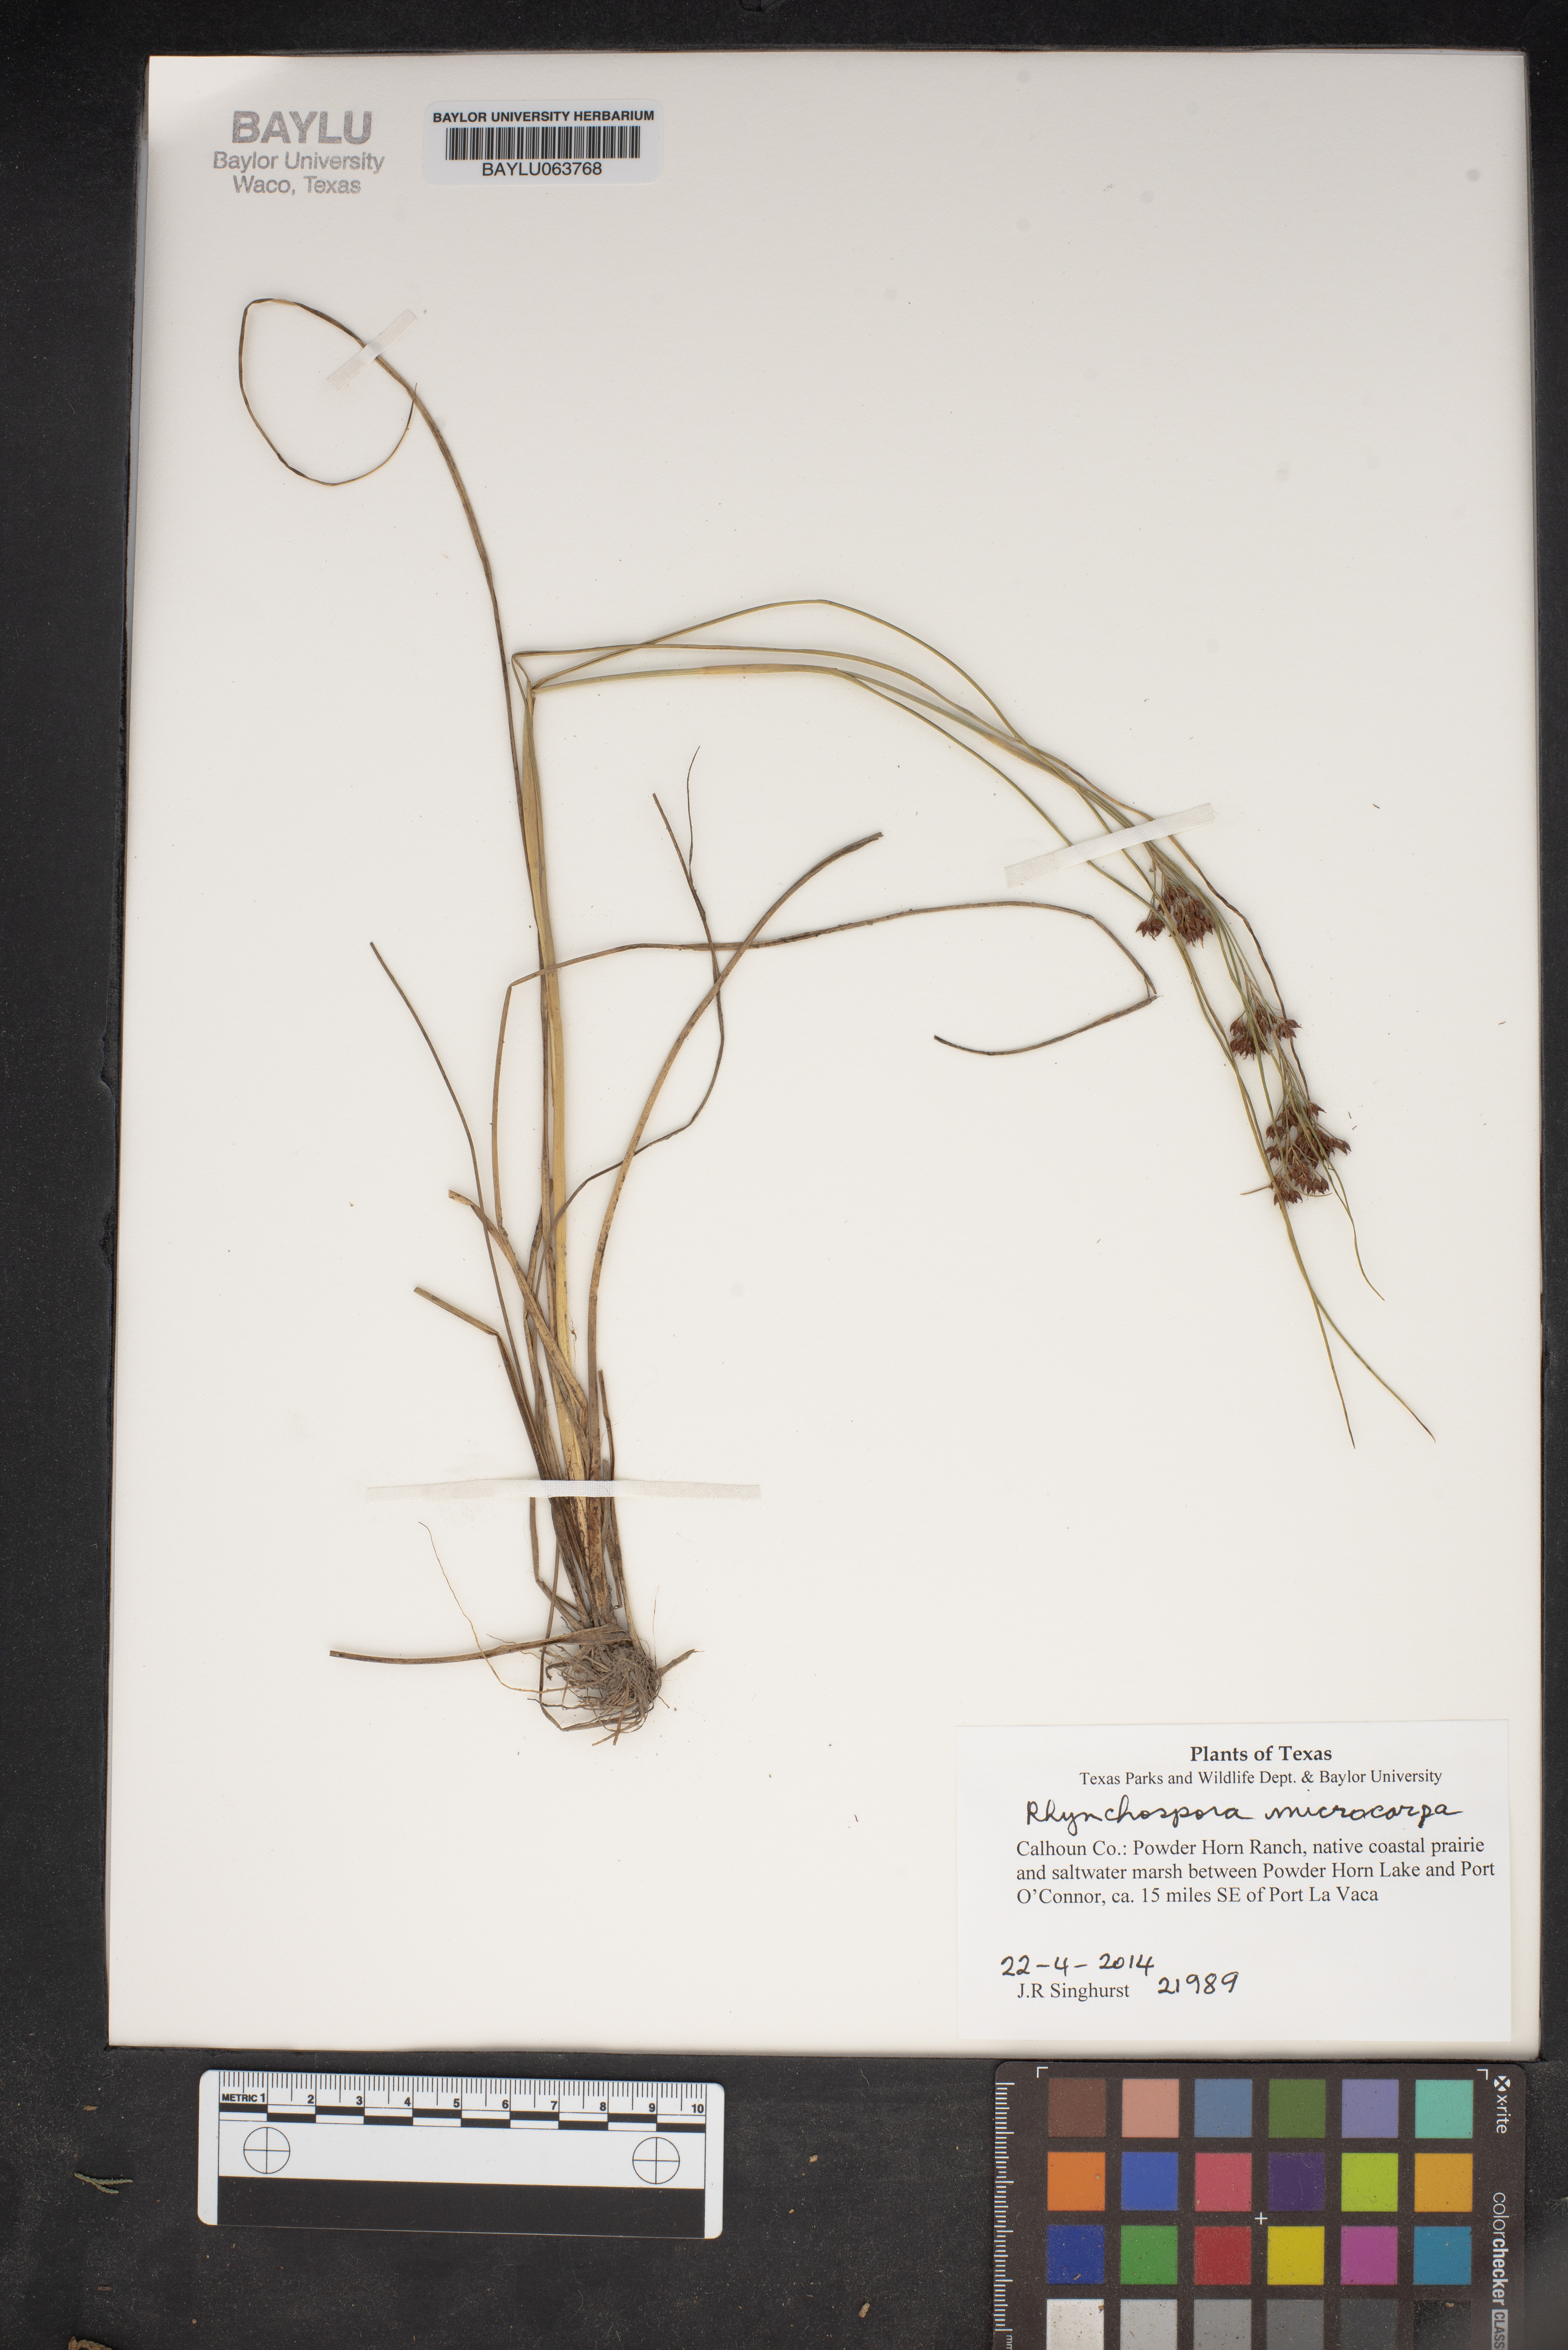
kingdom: Plantae
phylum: Tracheophyta
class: Liliopsida
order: Poales
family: Cyperaceae
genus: Rhynchospora
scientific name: Rhynchospora microcarpa
